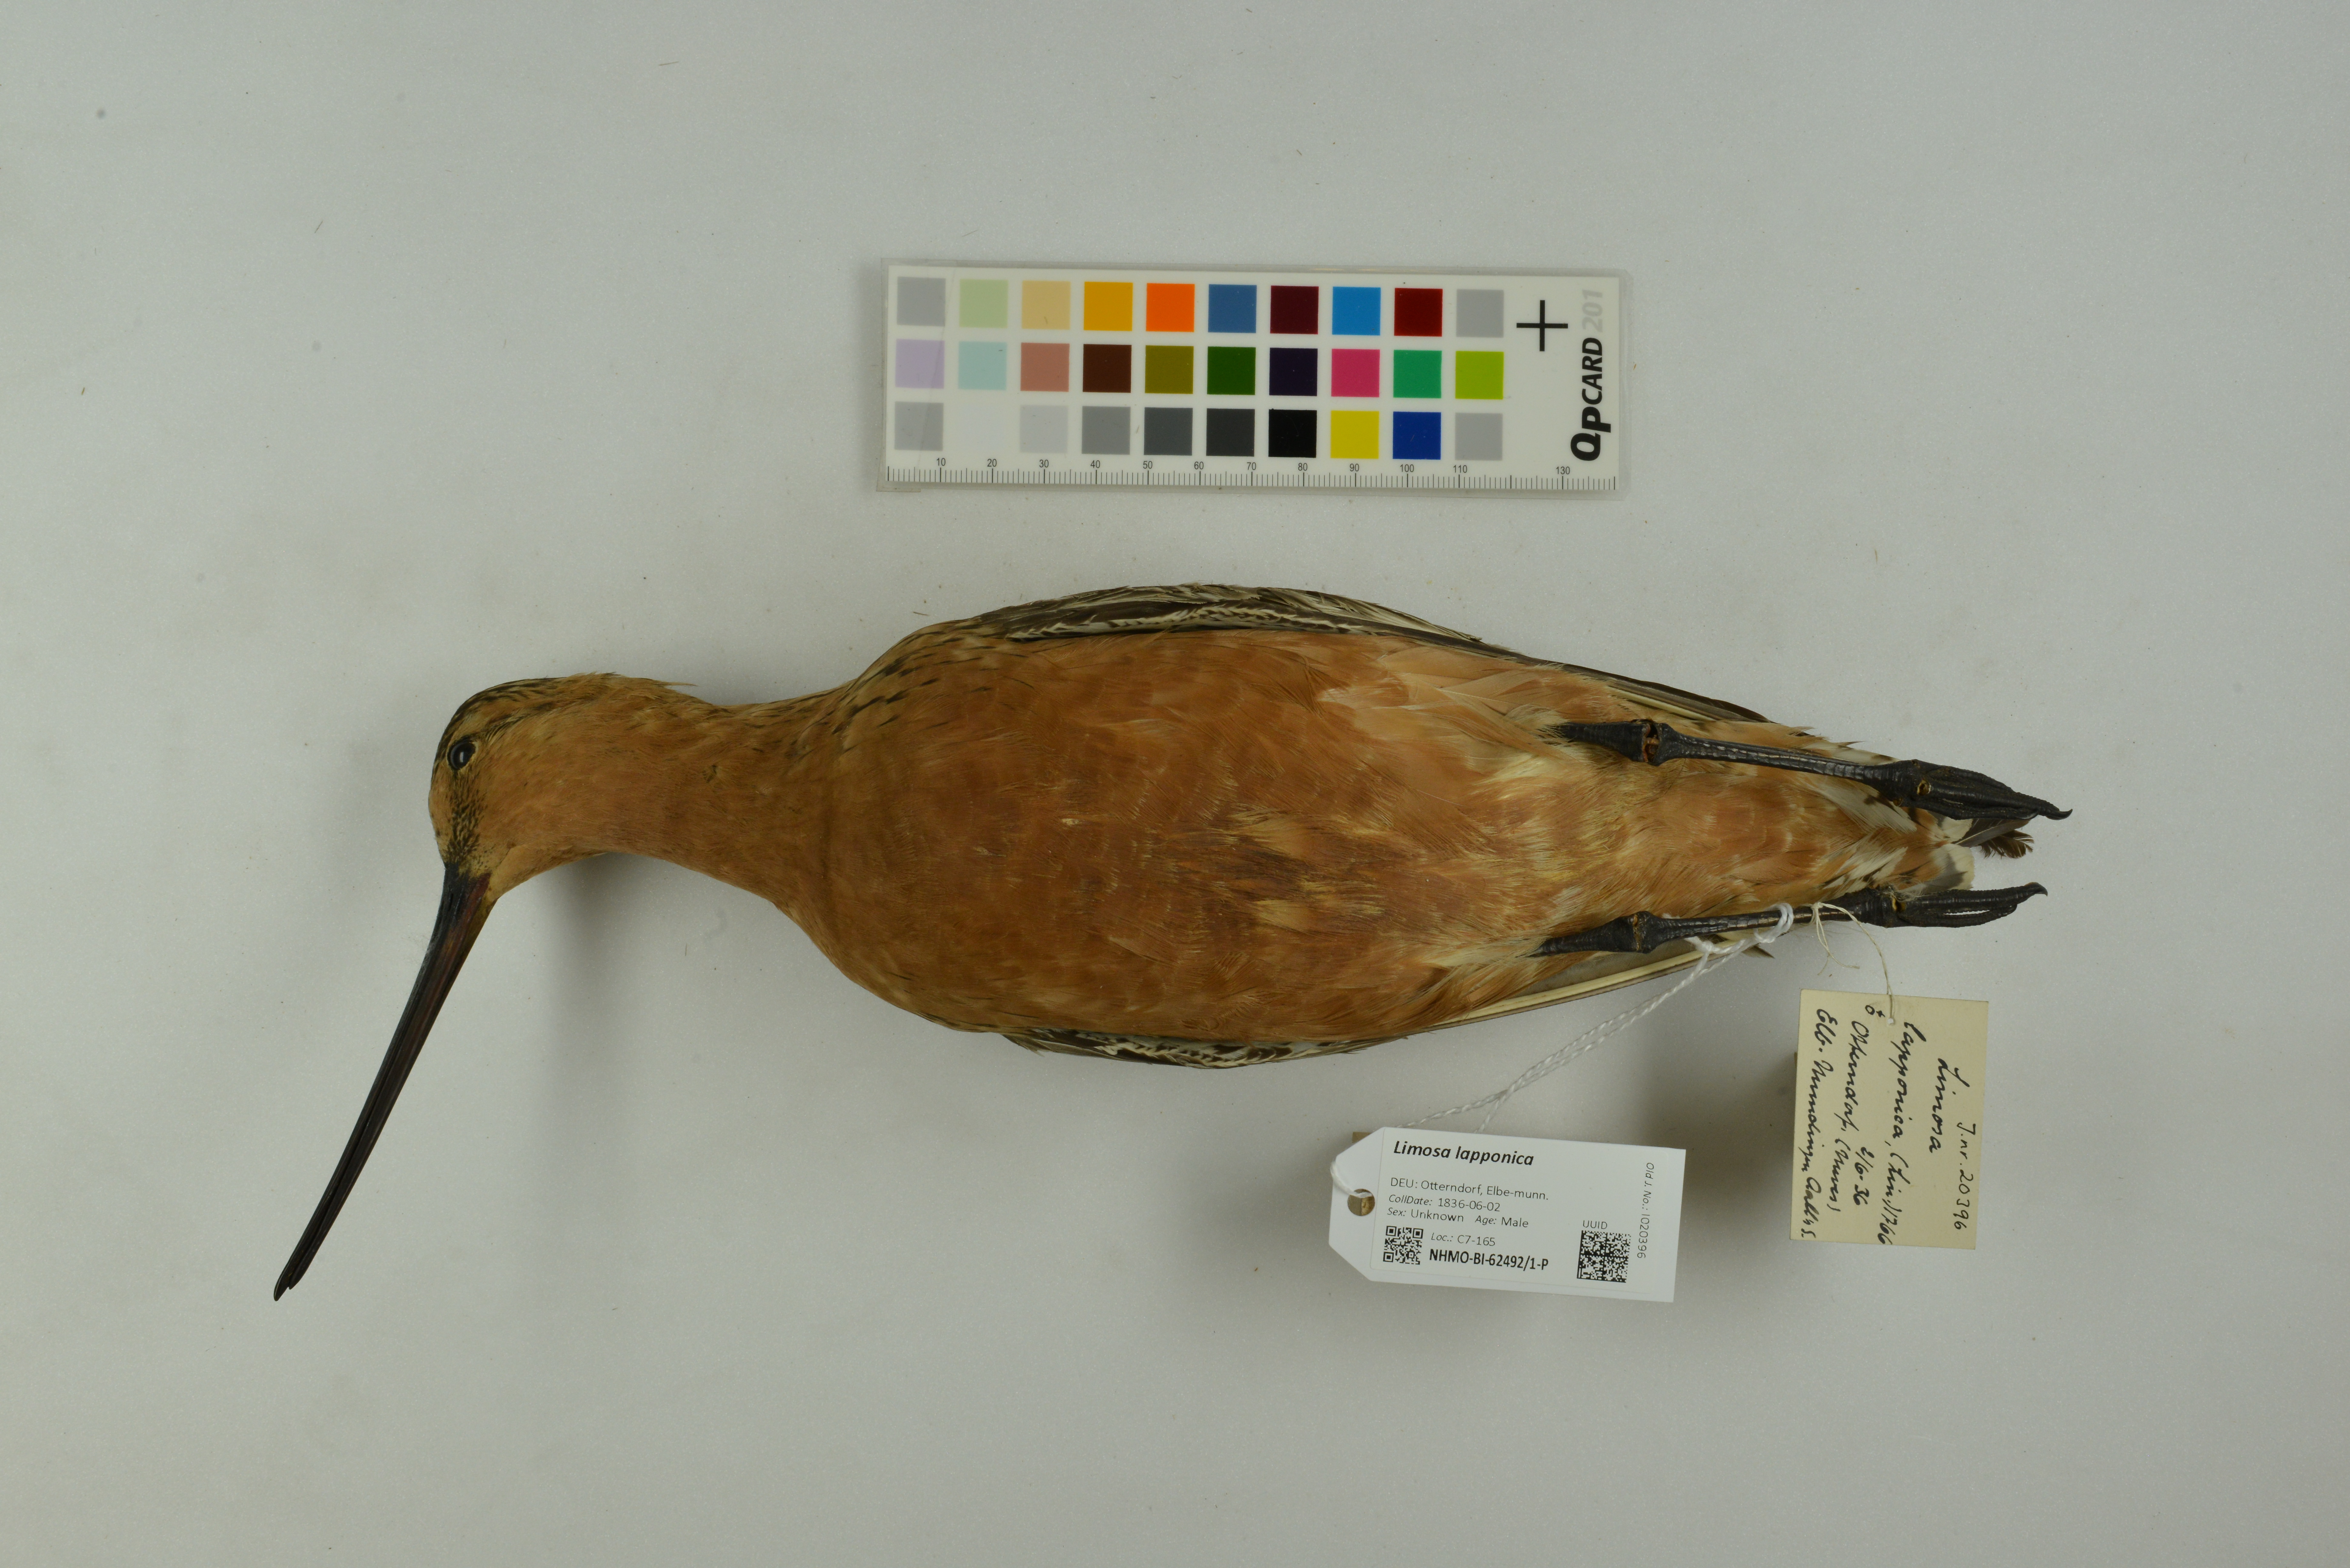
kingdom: Animalia
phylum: Chordata
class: Aves
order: Charadriiformes
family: Scolopacidae
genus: Limosa
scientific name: Limosa lapponica
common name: Bar-tailed godwit
